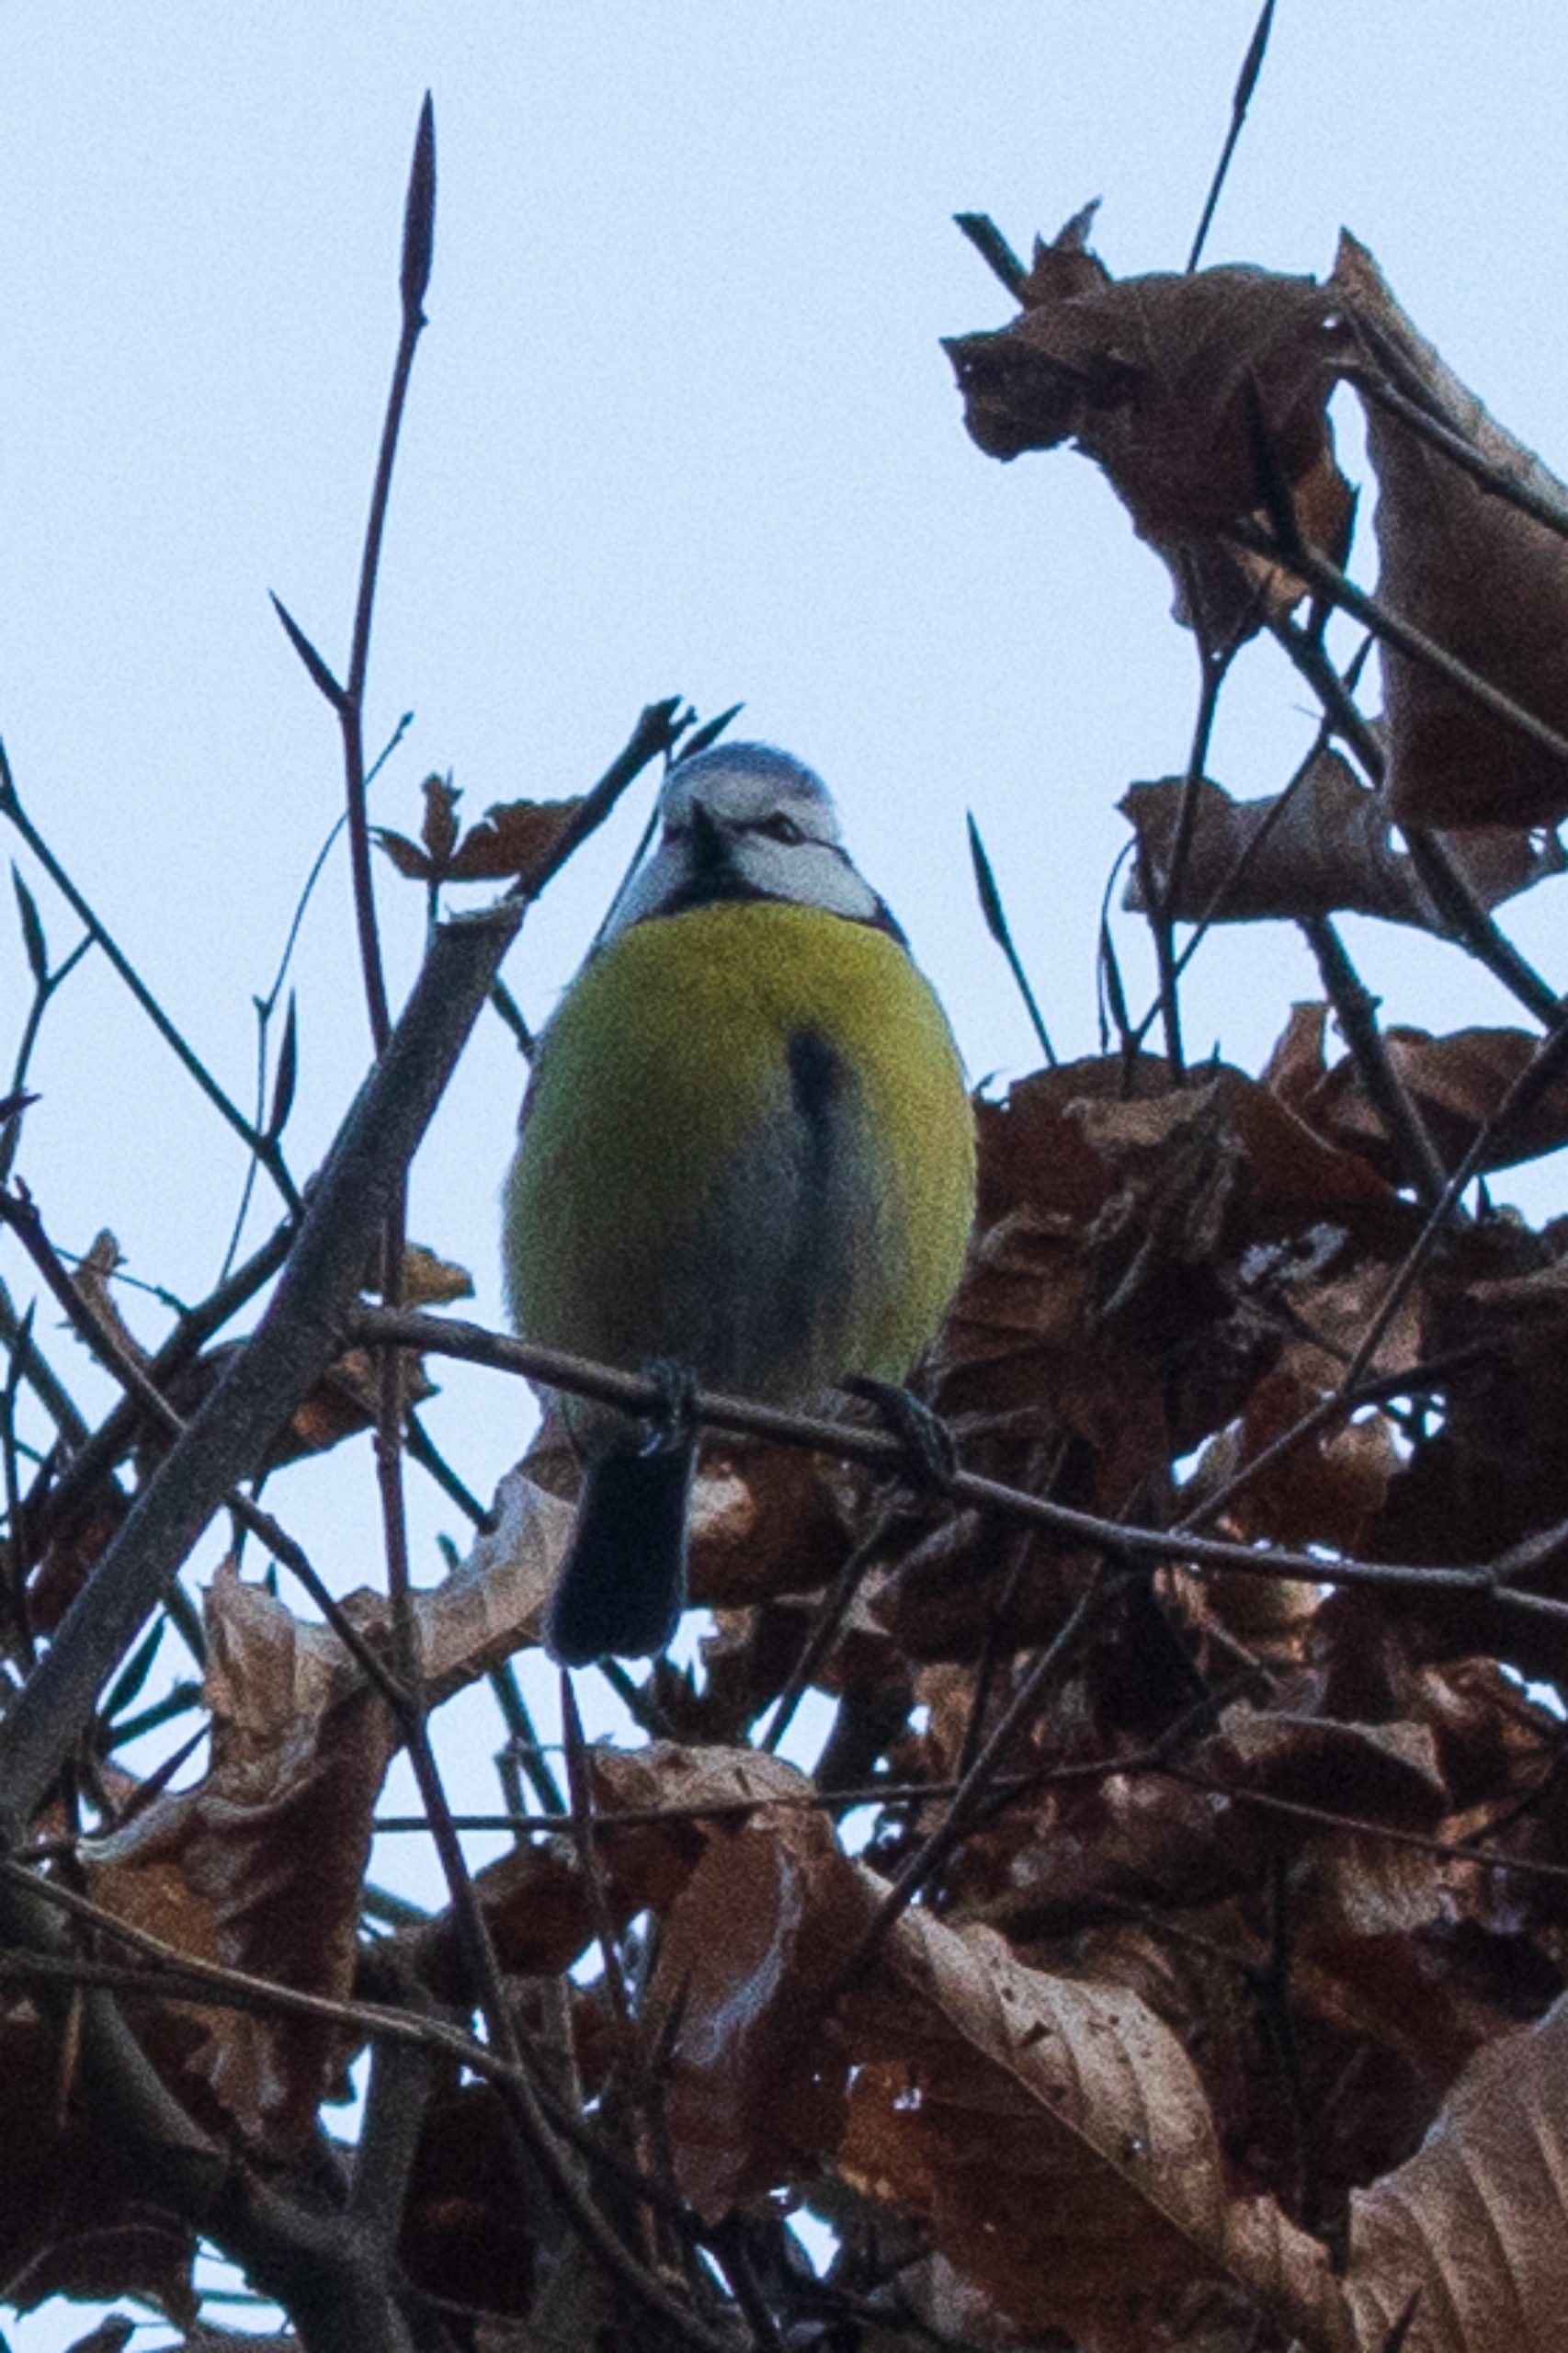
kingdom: Animalia
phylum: Chordata
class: Aves
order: Passeriformes
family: Paridae
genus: Cyanistes
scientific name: Cyanistes caeruleus
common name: Blåmejse
